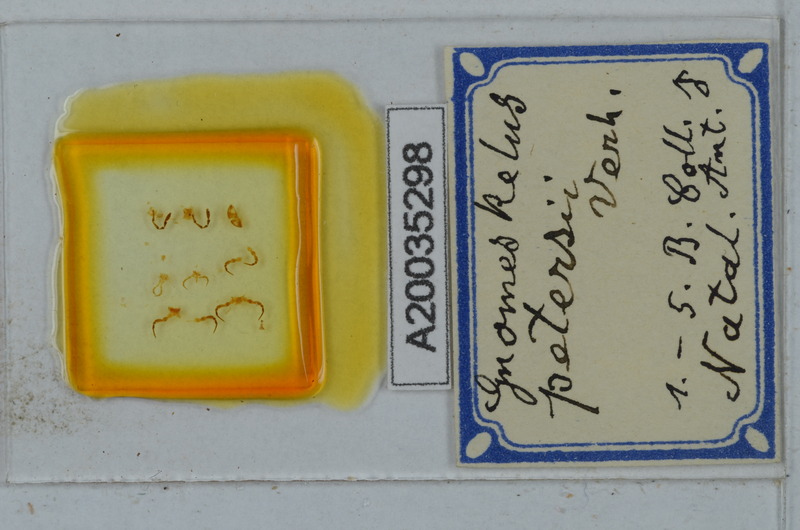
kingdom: Animalia
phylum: Arthropoda
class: Diplopoda
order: Julida
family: Blaniulidae
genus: Blaniulus
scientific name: Blaniulus guttulatus
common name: Spotted snake millipede
